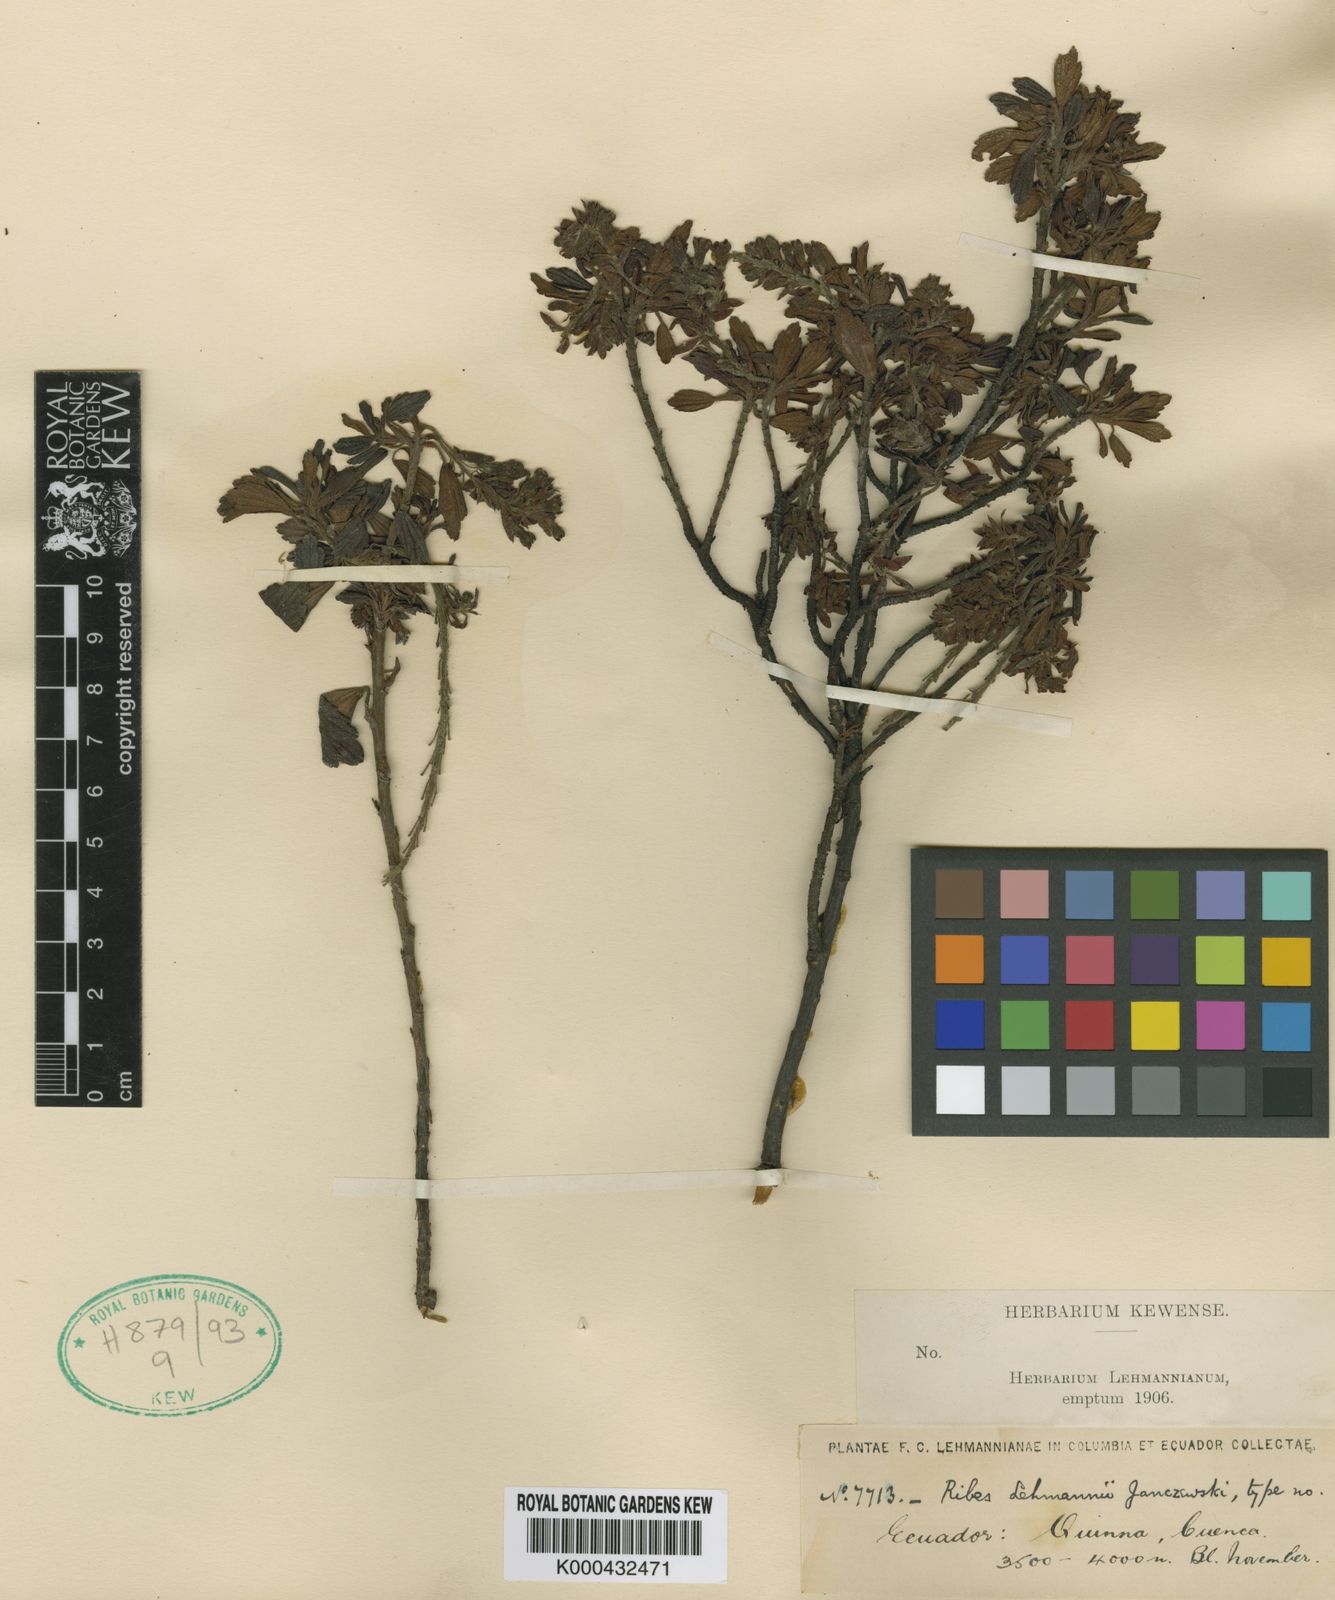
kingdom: Plantae
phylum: Tracheophyta
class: Magnoliopsida
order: Saxifragales
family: Grossulariaceae
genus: Ribes
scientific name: Ribes lehmannii
